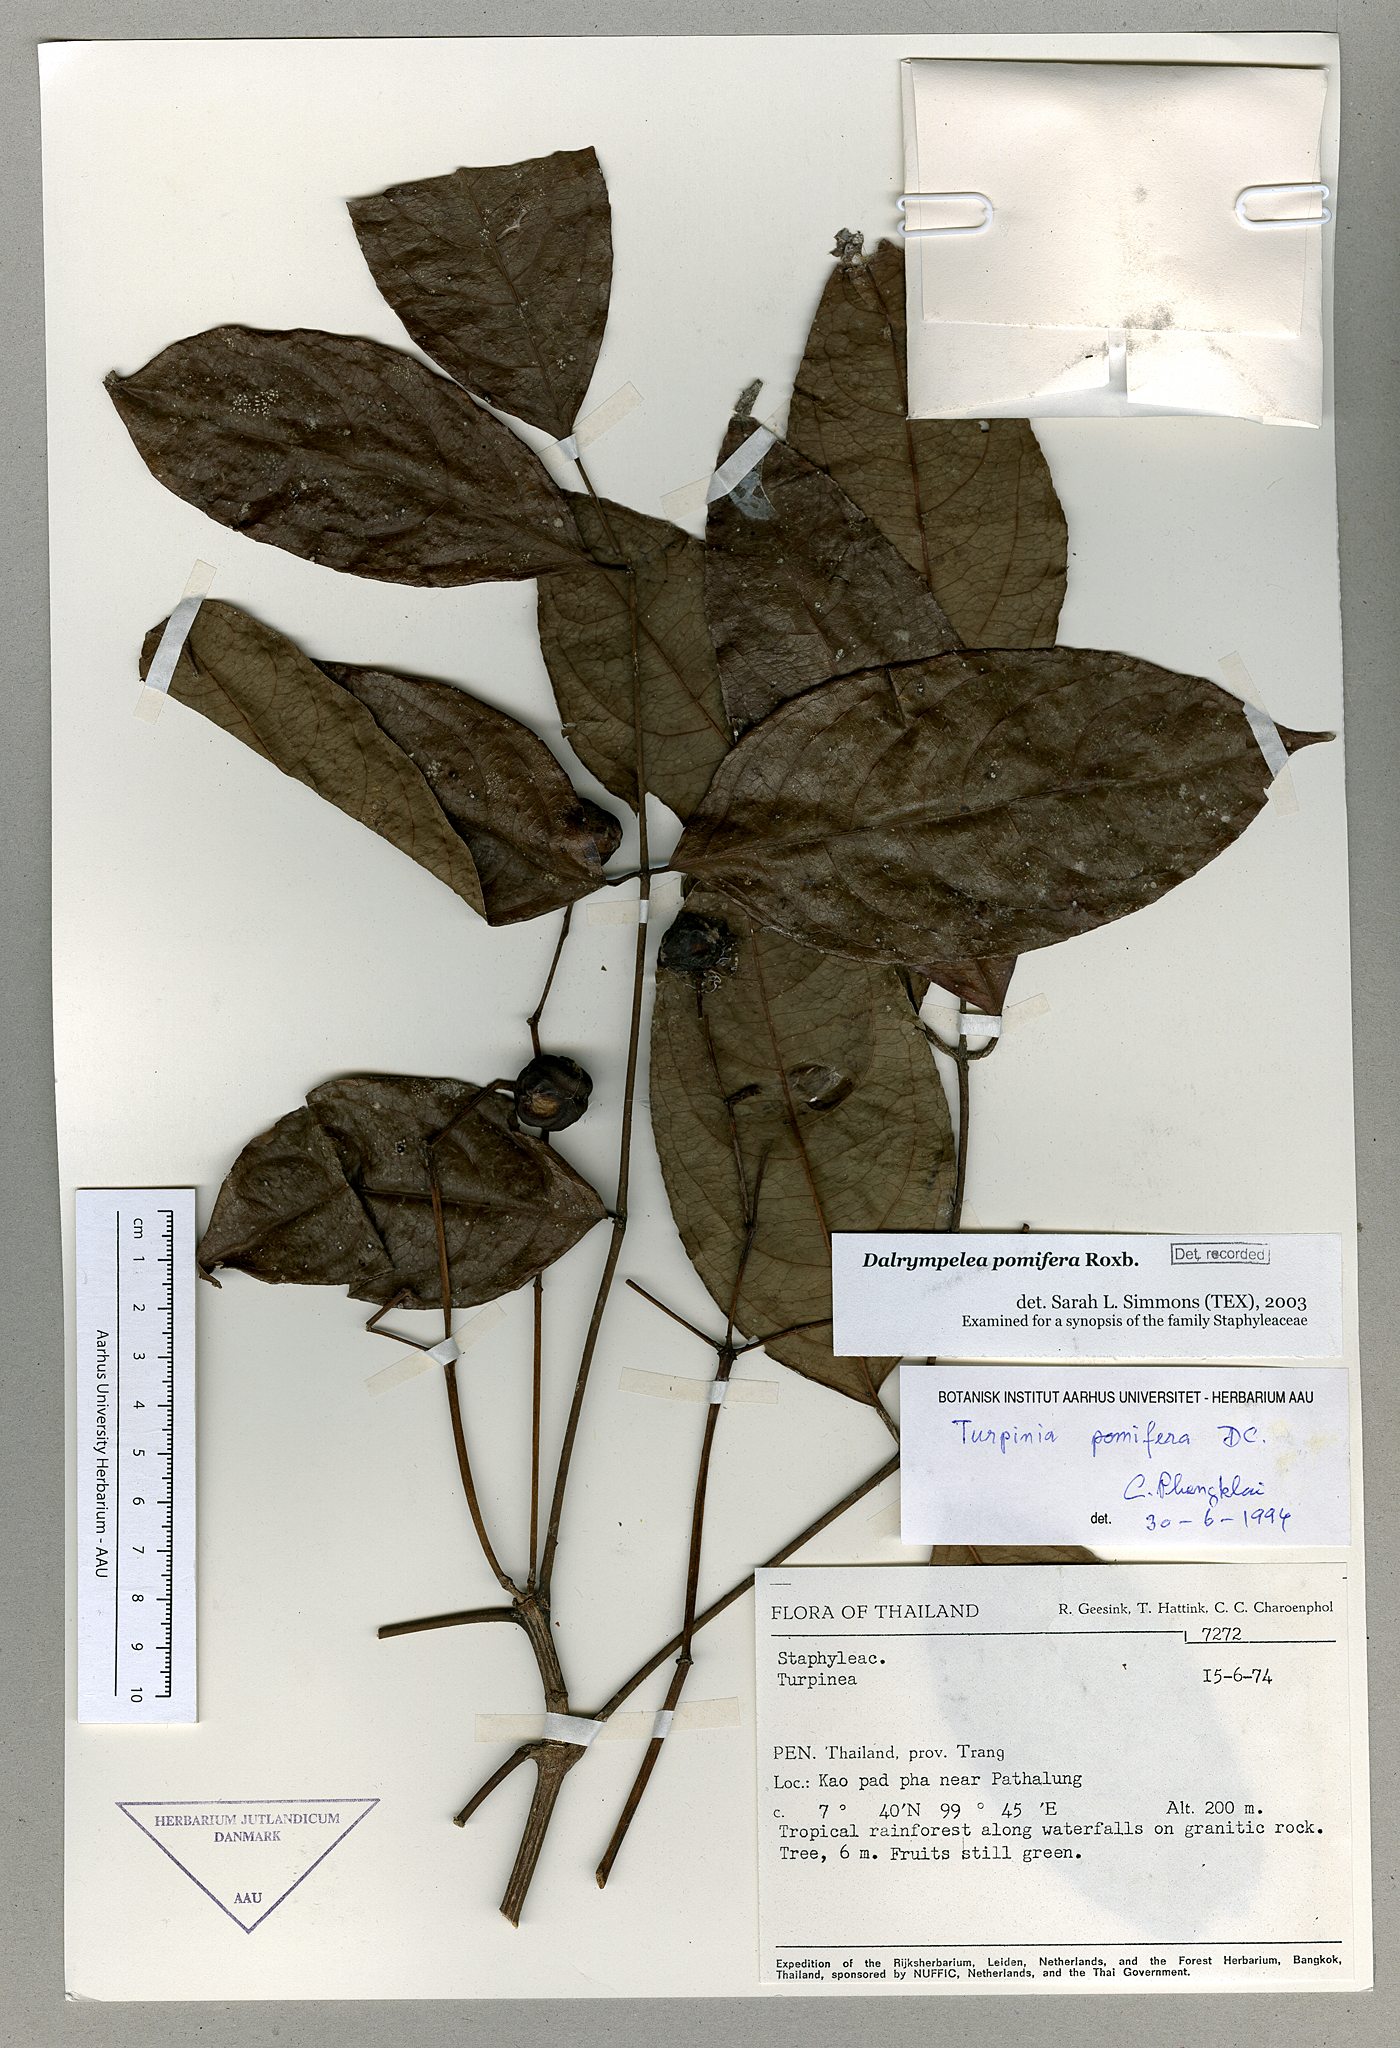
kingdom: Plantae
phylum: Tracheophyta
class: Magnoliopsida
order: Crossosomatales
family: Staphyleaceae
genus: Dalrympelea
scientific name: Dalrympelea sphaerocarpa
